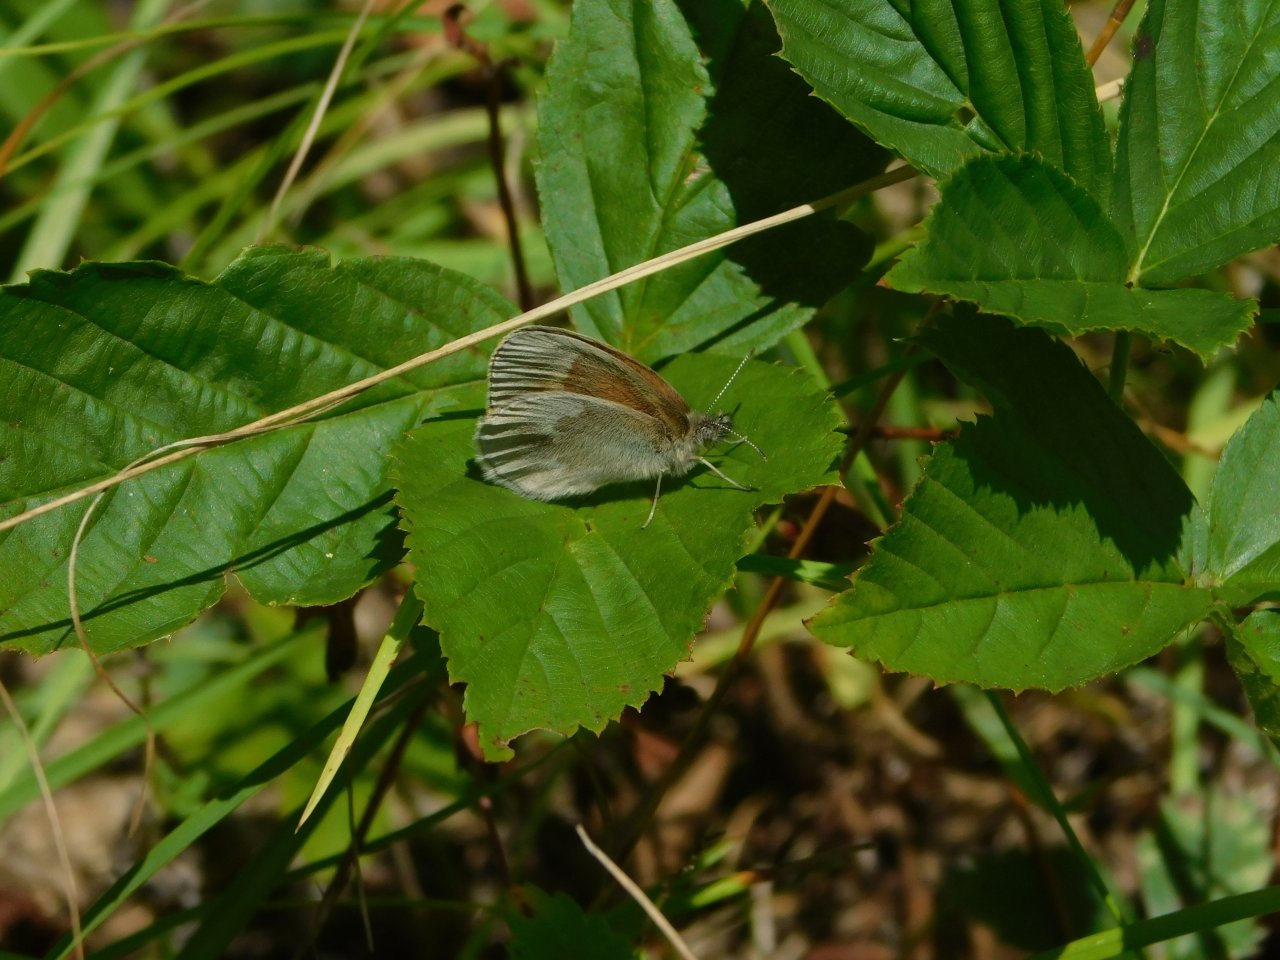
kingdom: Animalia
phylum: Arthropoda
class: Insecta
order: Lepidoptera
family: Nymphalidae
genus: Coenonympha
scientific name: Coenonympha tullia
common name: Large Heath
